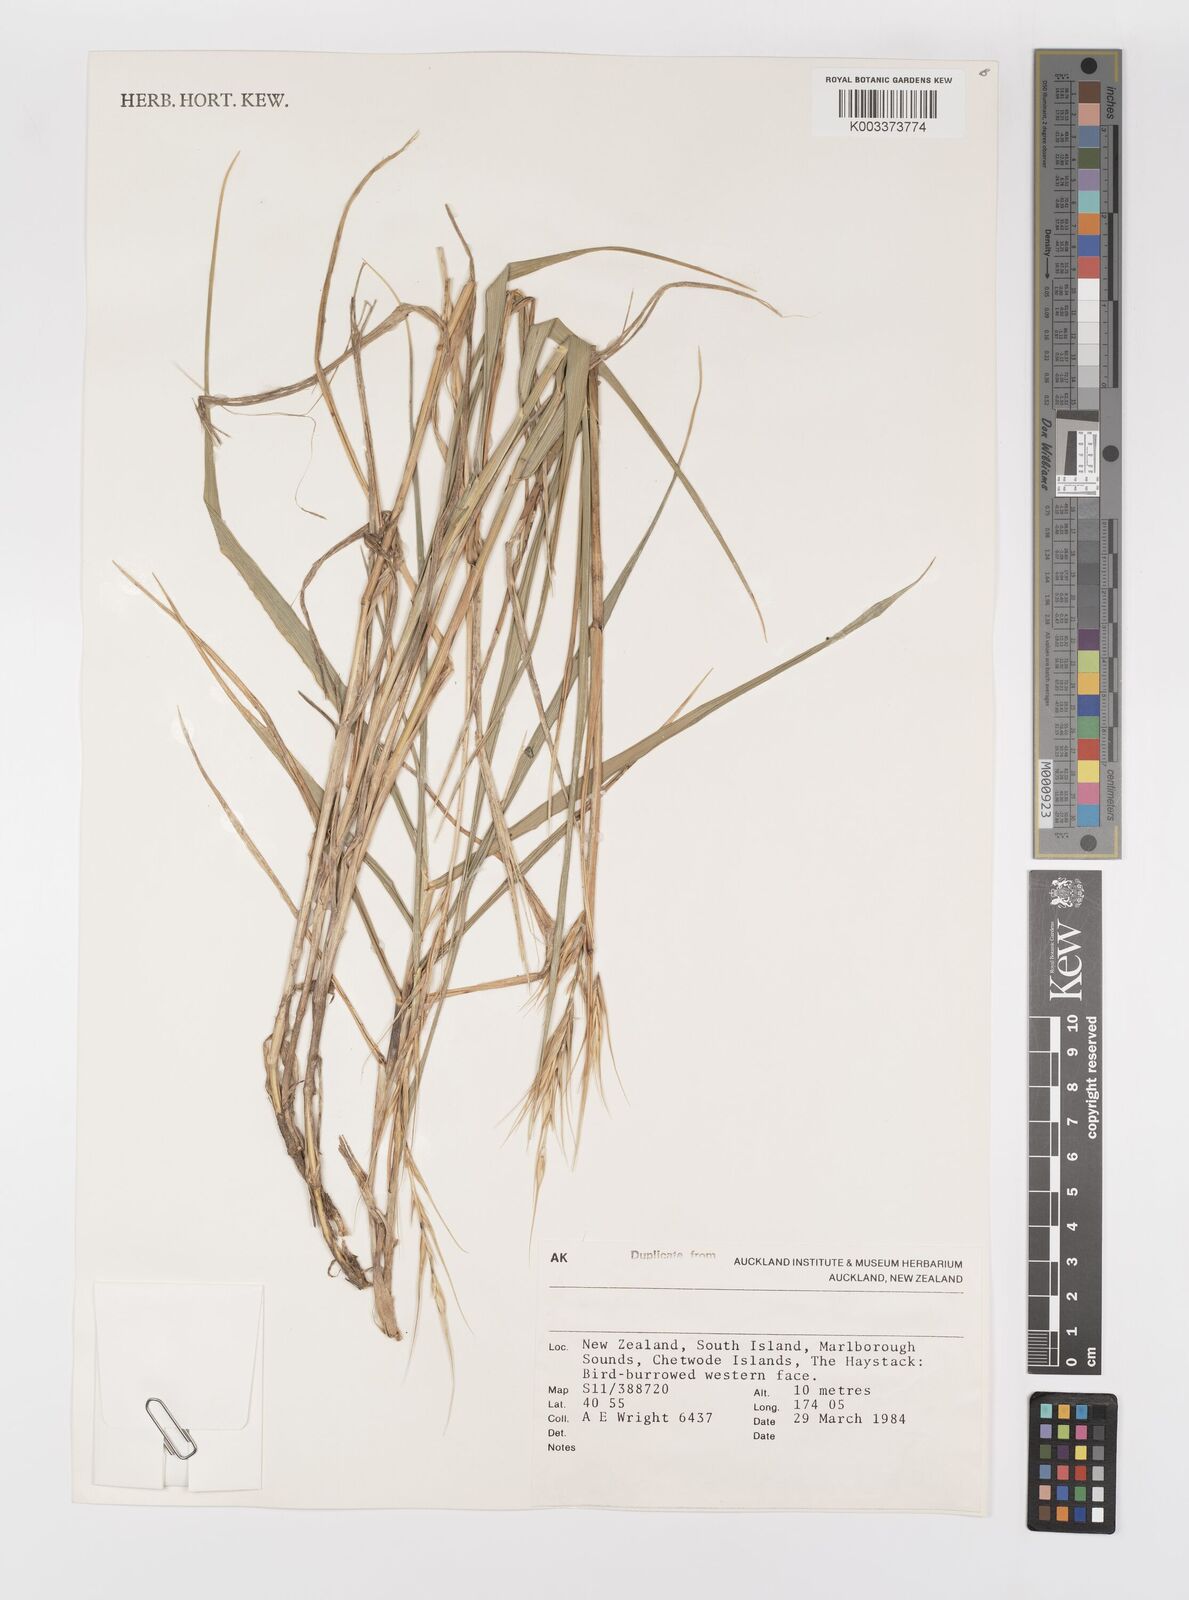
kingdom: Plantae
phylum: Tracheophyta
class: Liliopsida
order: Poales
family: Poaceae
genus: Elymus
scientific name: Elymus
